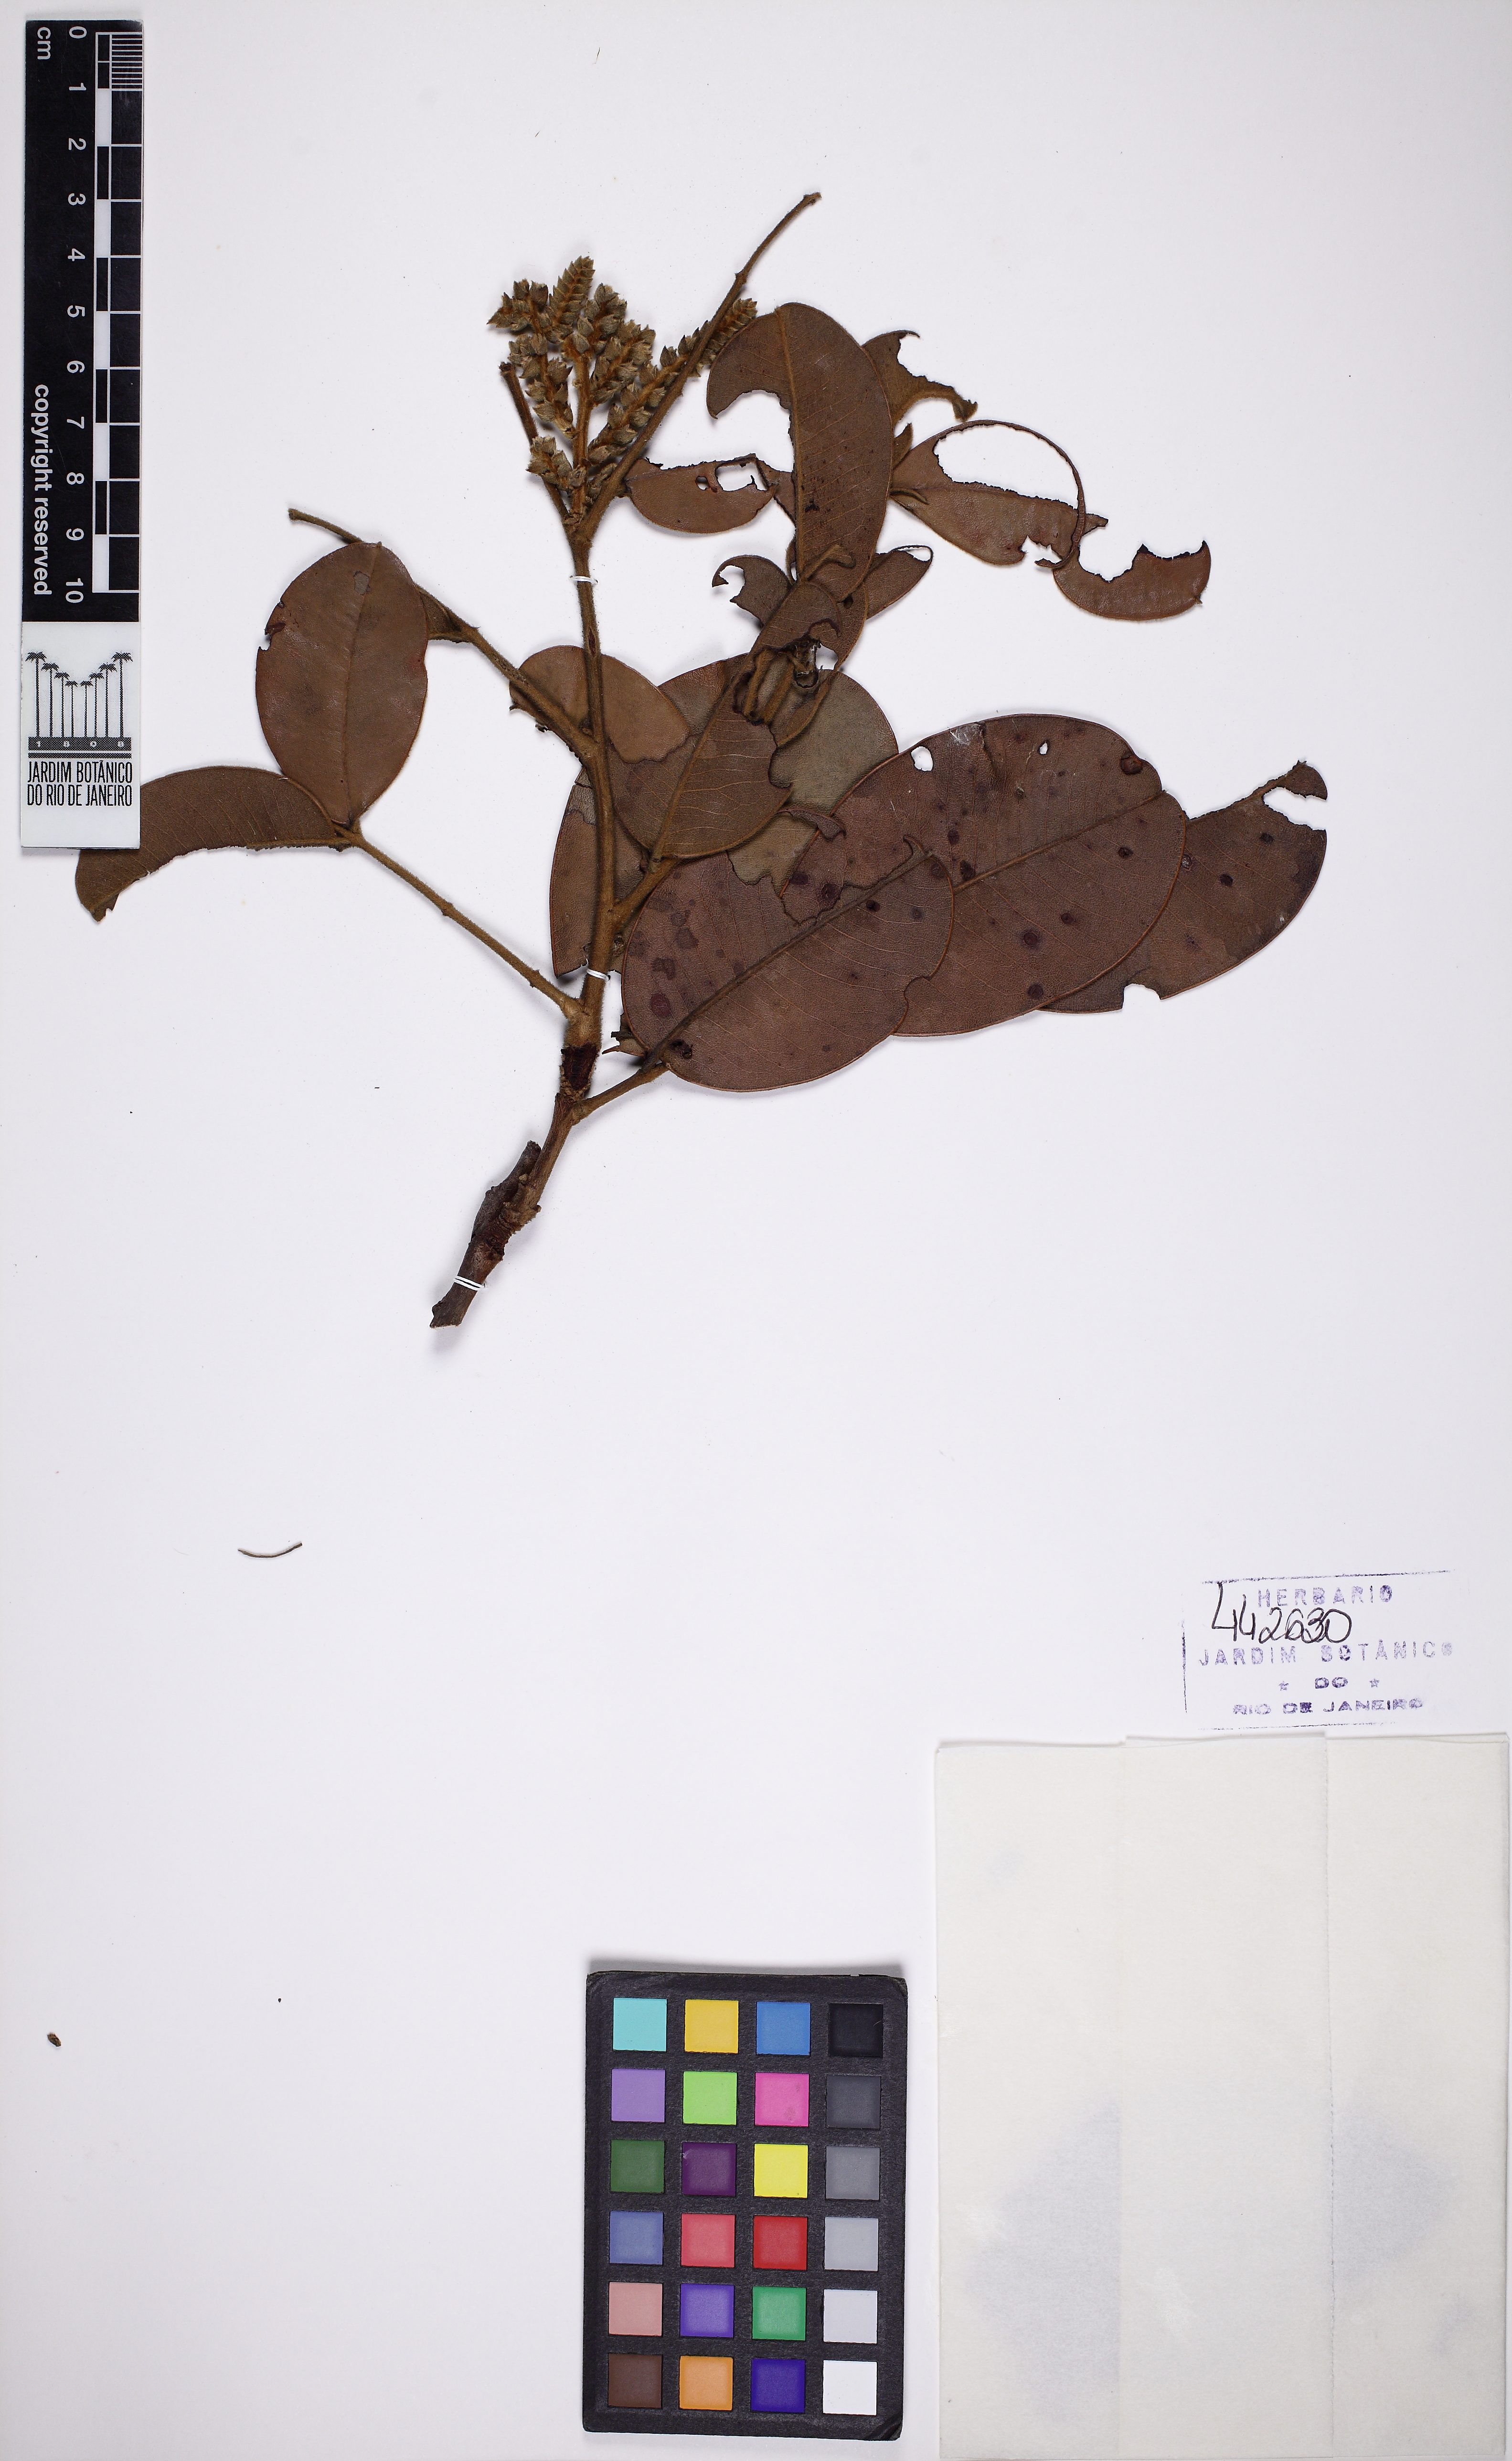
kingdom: Plantae
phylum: Tracheophyta
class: Magnoliopsida
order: Fabales
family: Fabaceae
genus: Copaifera
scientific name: Copaifera
